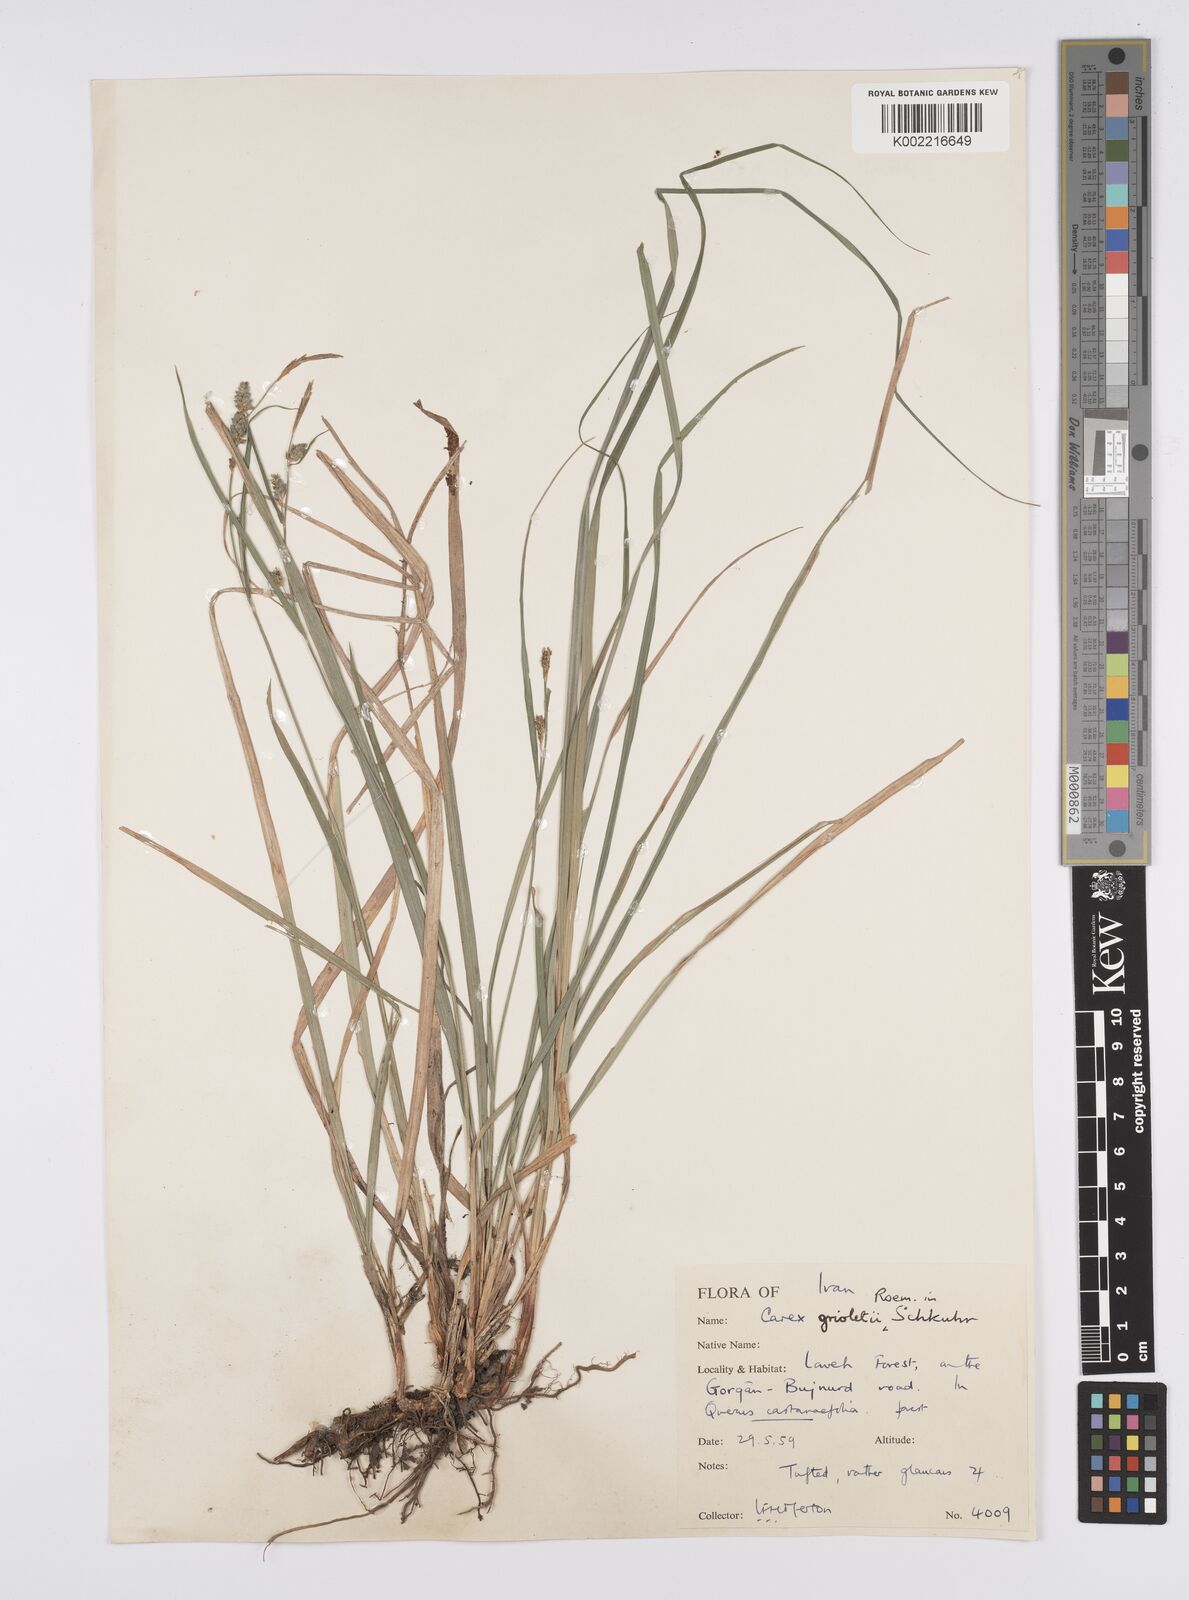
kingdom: Plantae
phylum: Tracheophyta
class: Liliopsida
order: Poales
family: Cyperaceae
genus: Carex
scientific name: Carex grioletii
